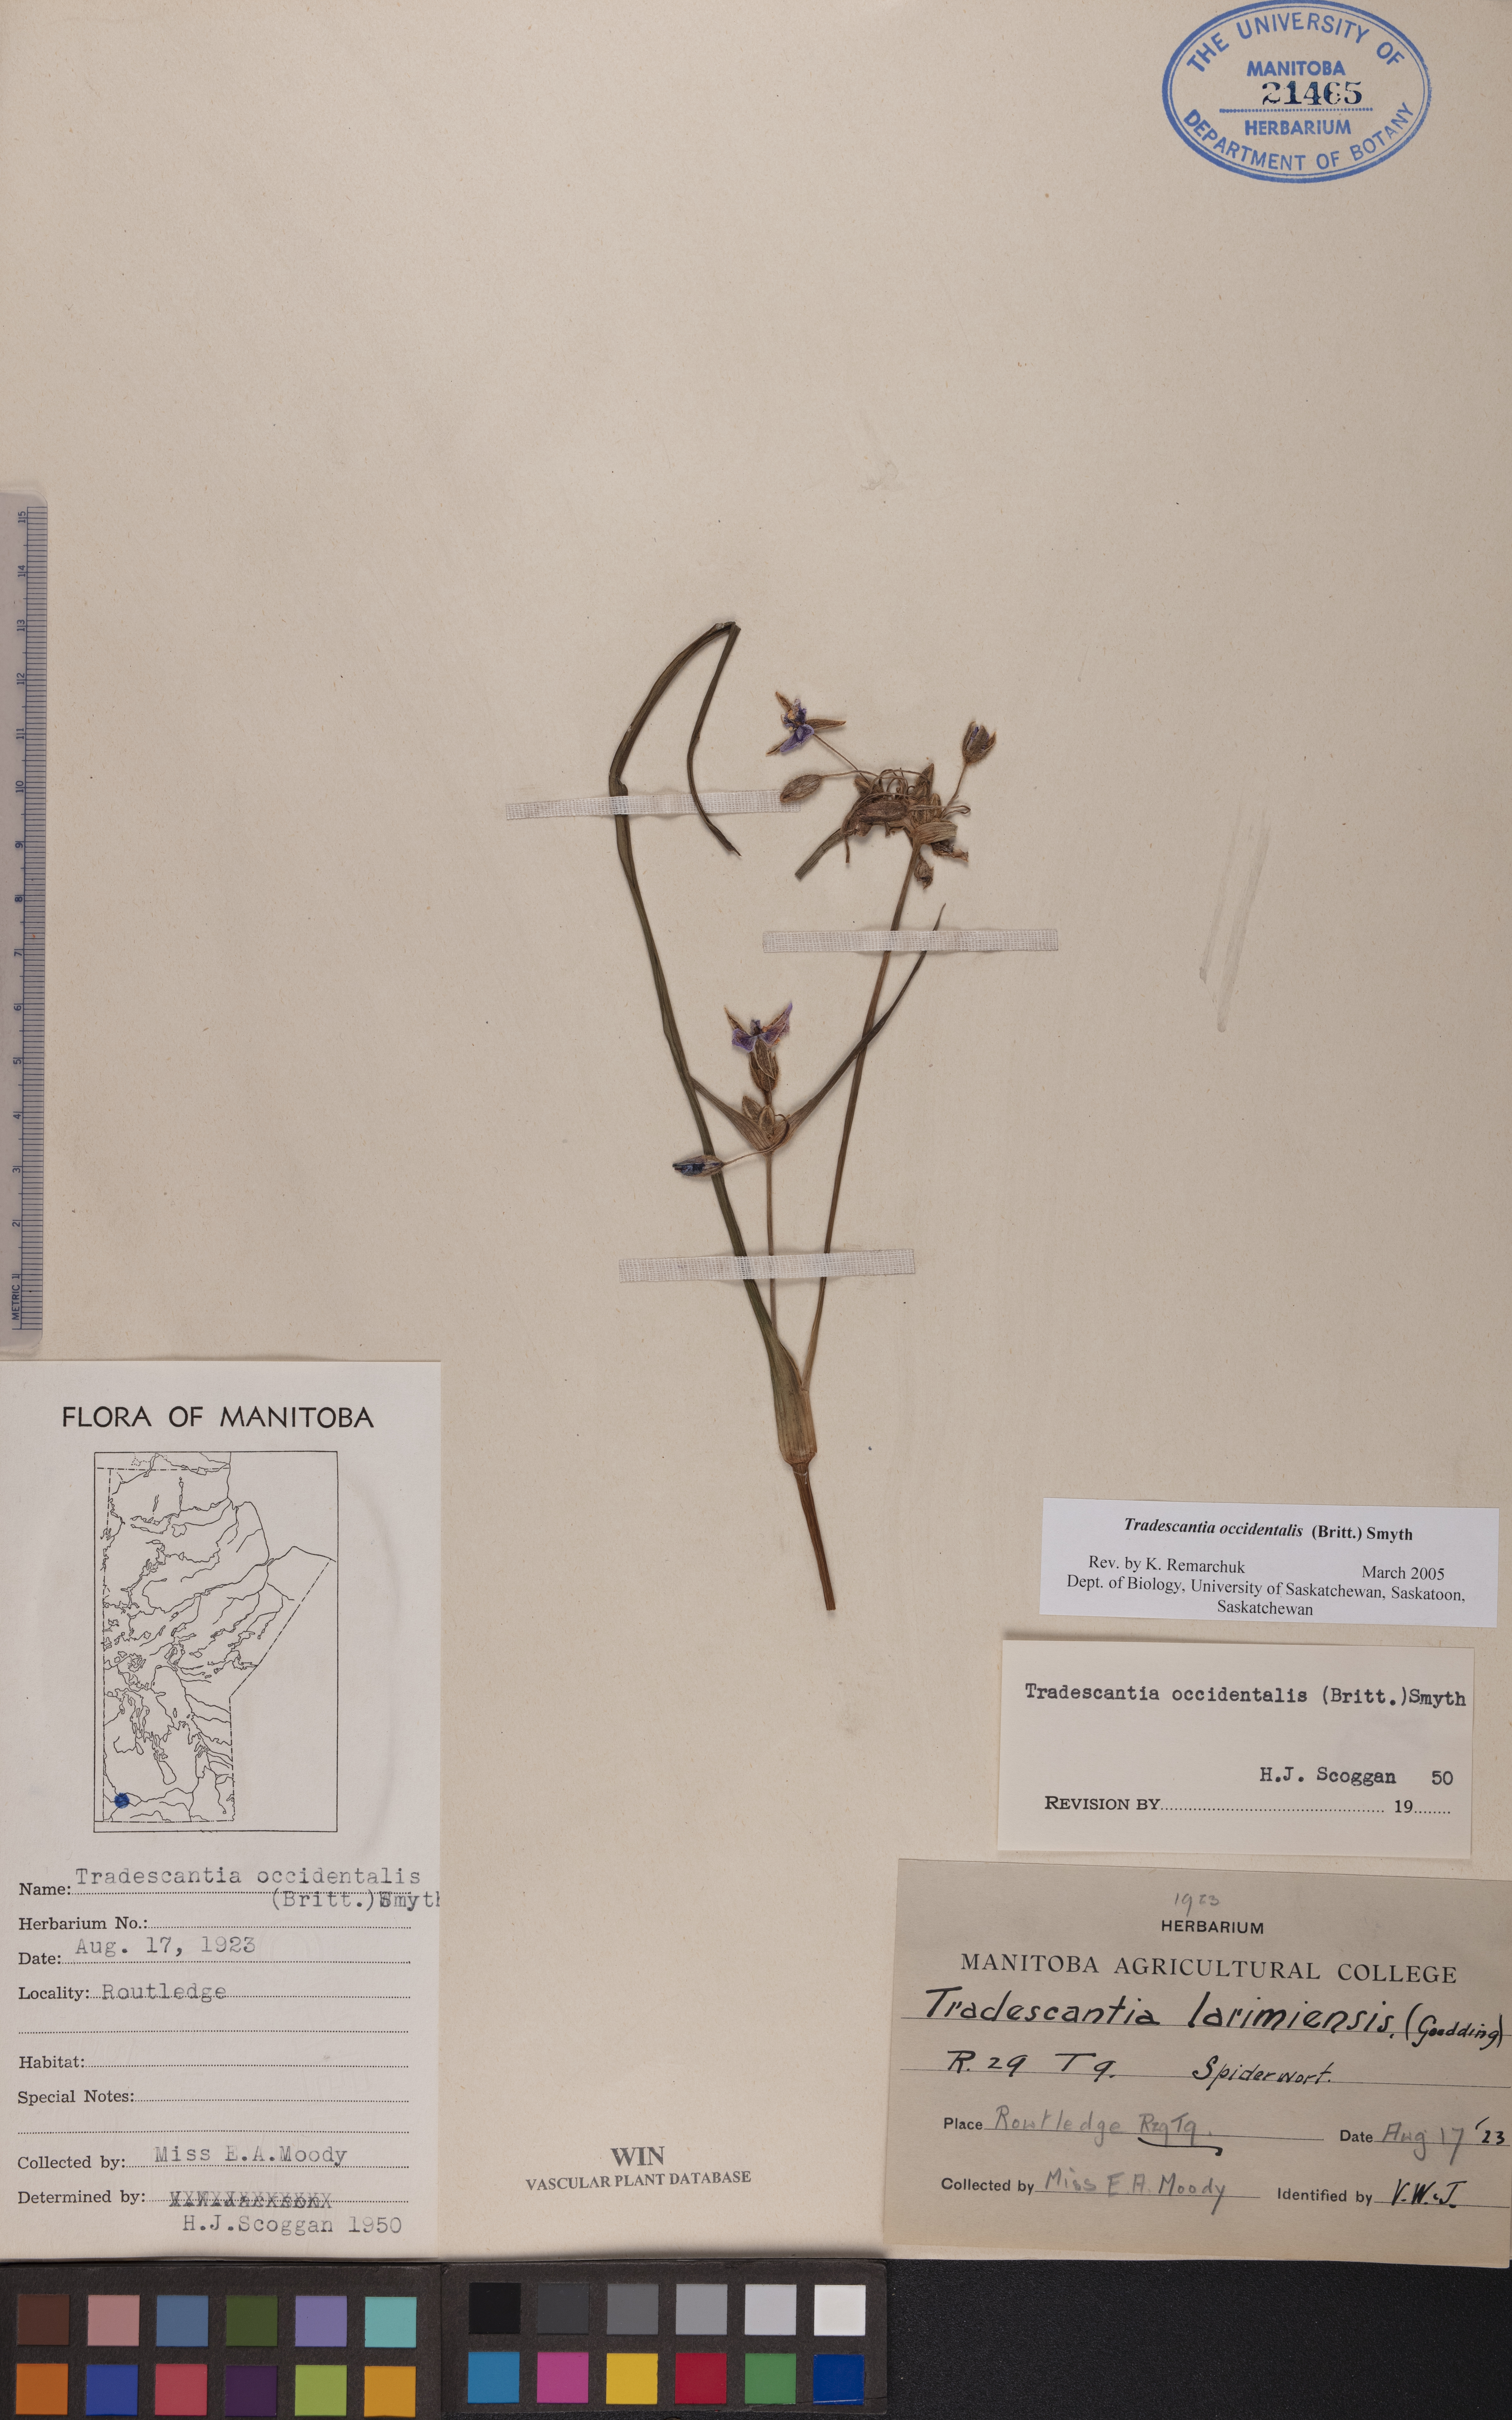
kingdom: Plantae
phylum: Tracheophyta
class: Liliopsida
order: Commelinales
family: Commelinaceae
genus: Tradescantia
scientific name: Tradescantia occidentalis
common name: Prairie spiderwort
